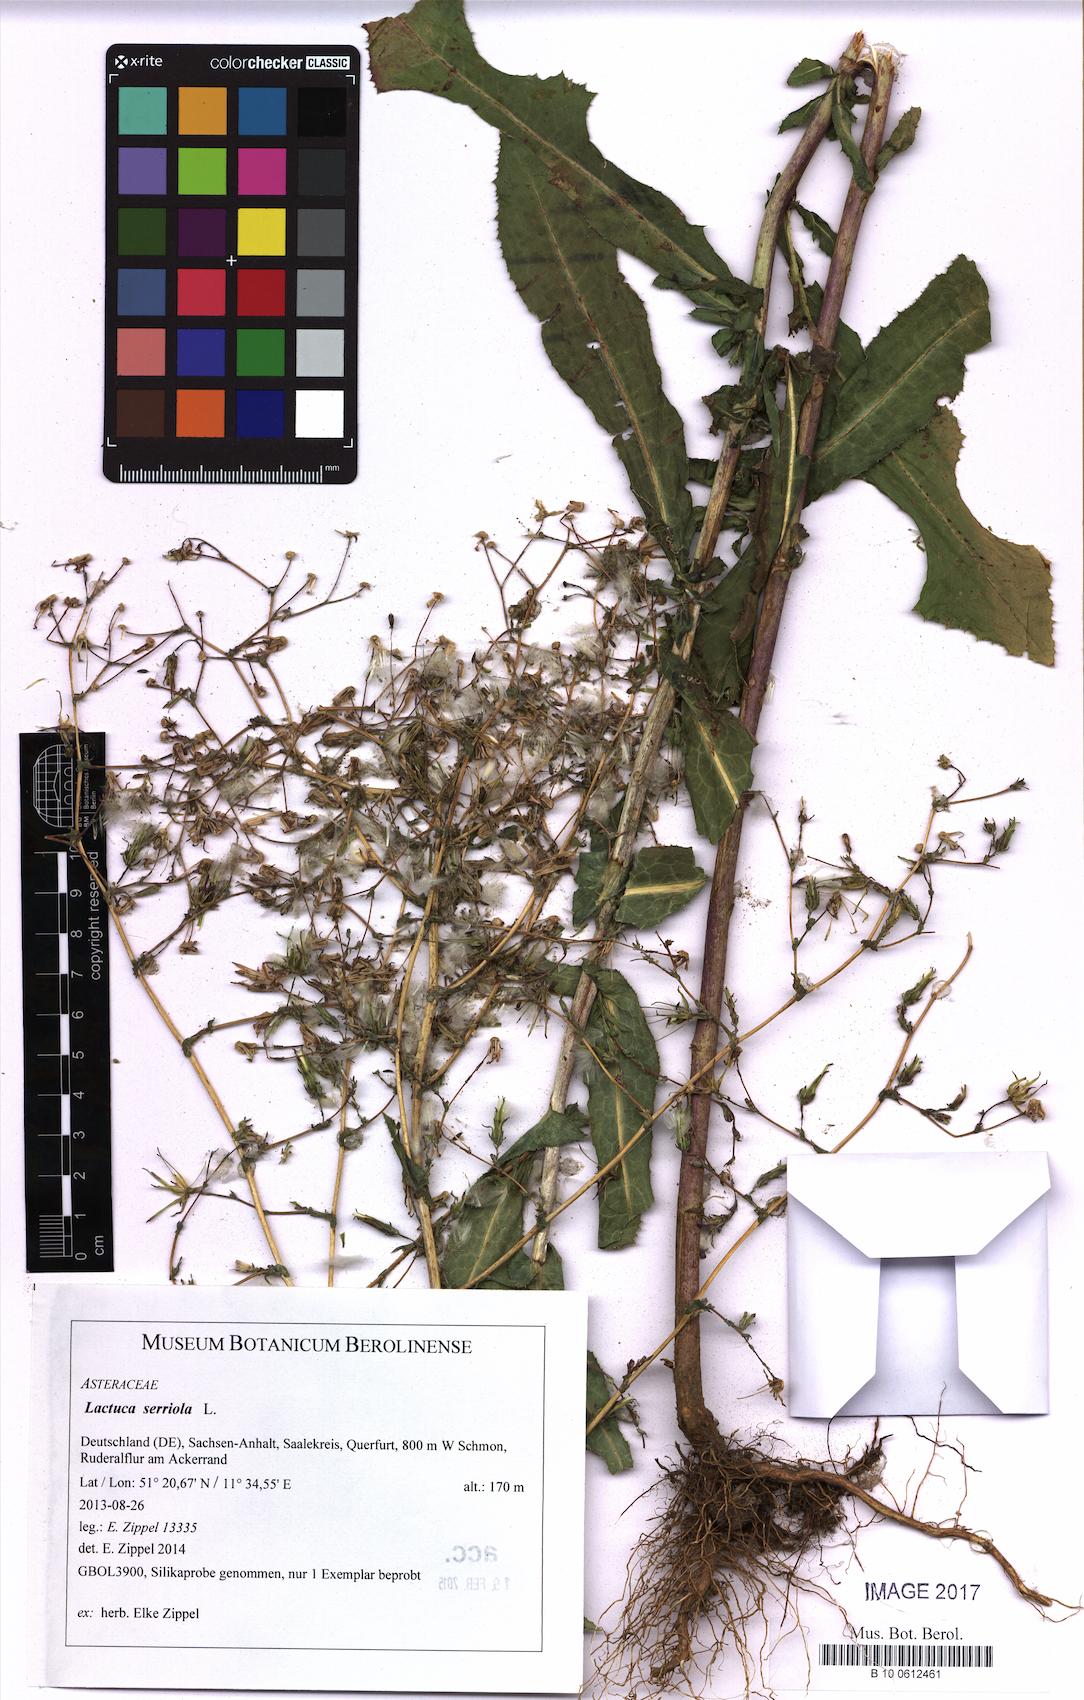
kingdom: Plantae
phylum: Tracheophyta
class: Magnoliopsida
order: Asterales
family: Asteraceae
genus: Lactuca
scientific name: Lactuca serriola
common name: Prickly lettuce
